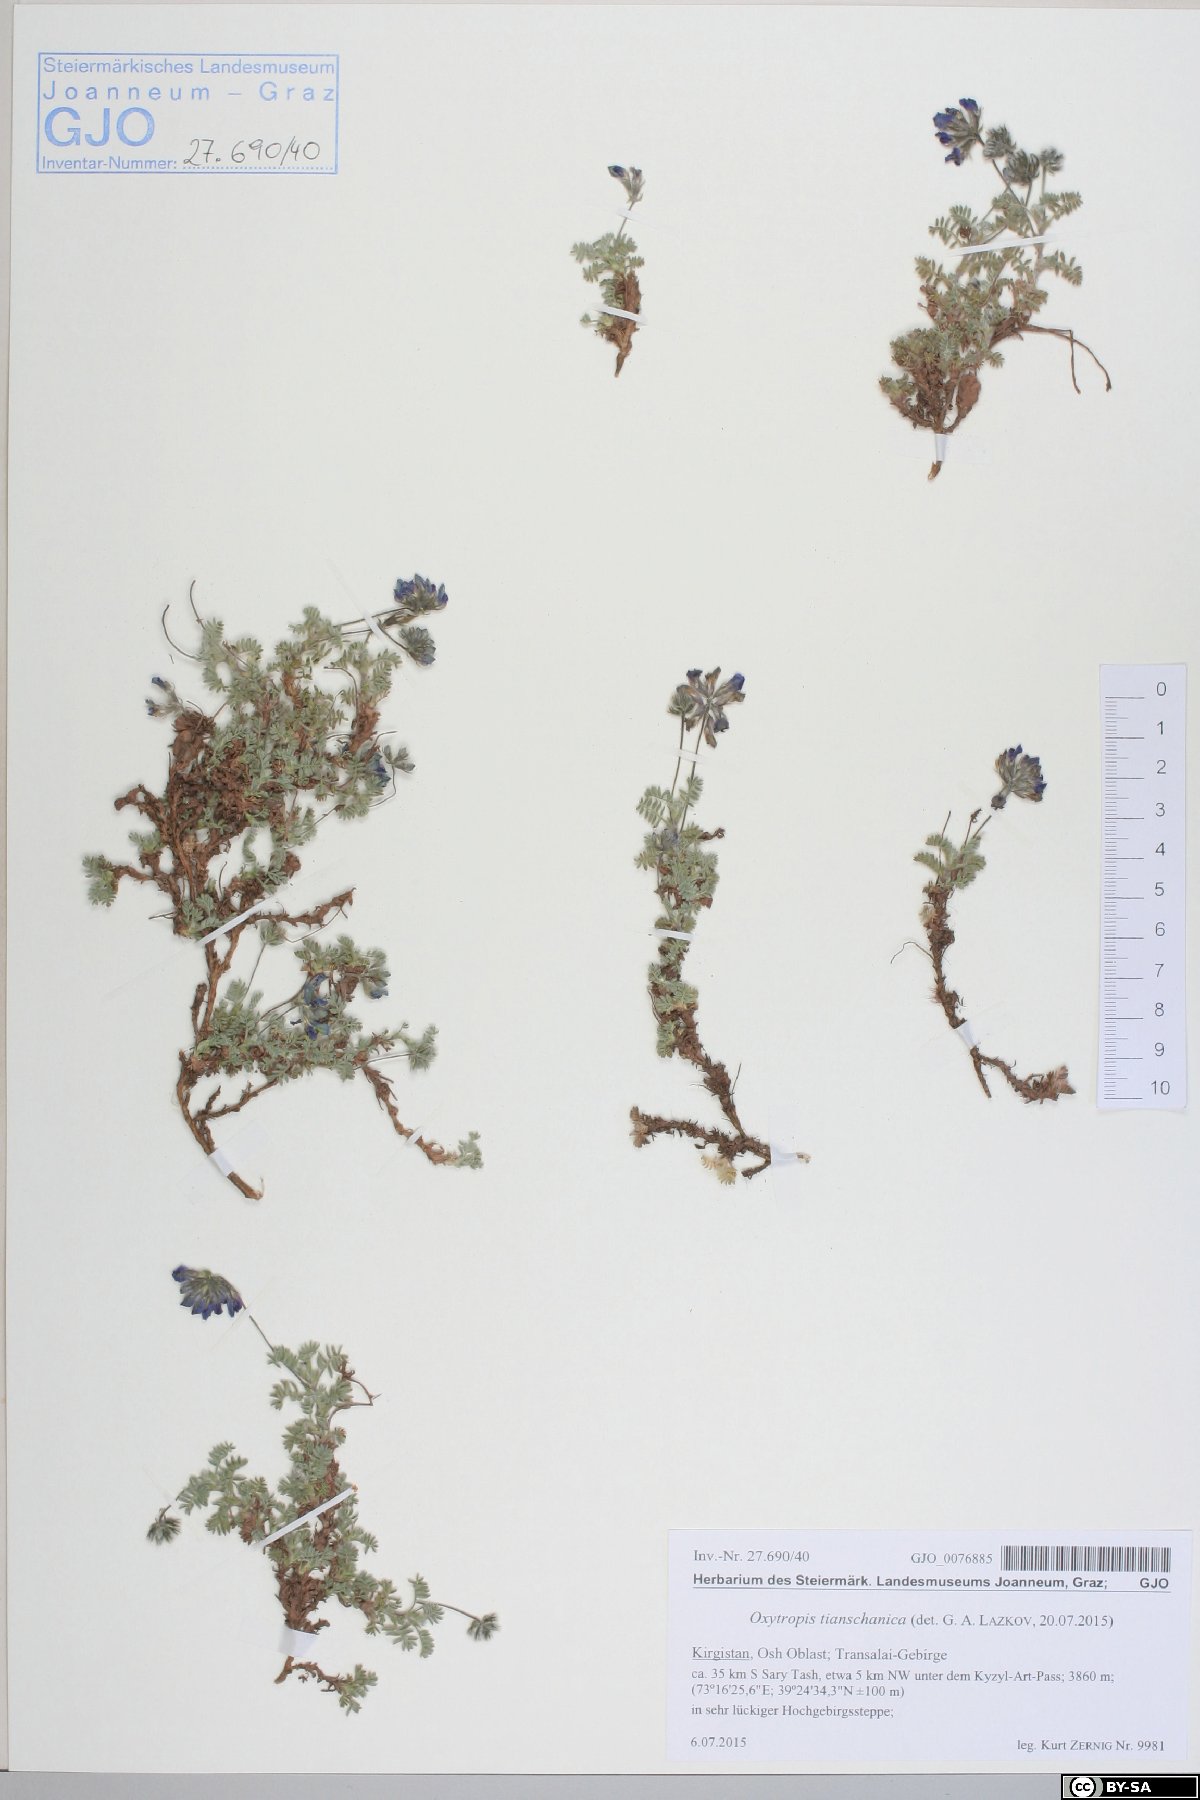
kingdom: Plantae
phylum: Tracheophyta
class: Magnoliopsida
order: Fabales
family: Fabaceae
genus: Oxytropis
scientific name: Oxytropis tianschanica
